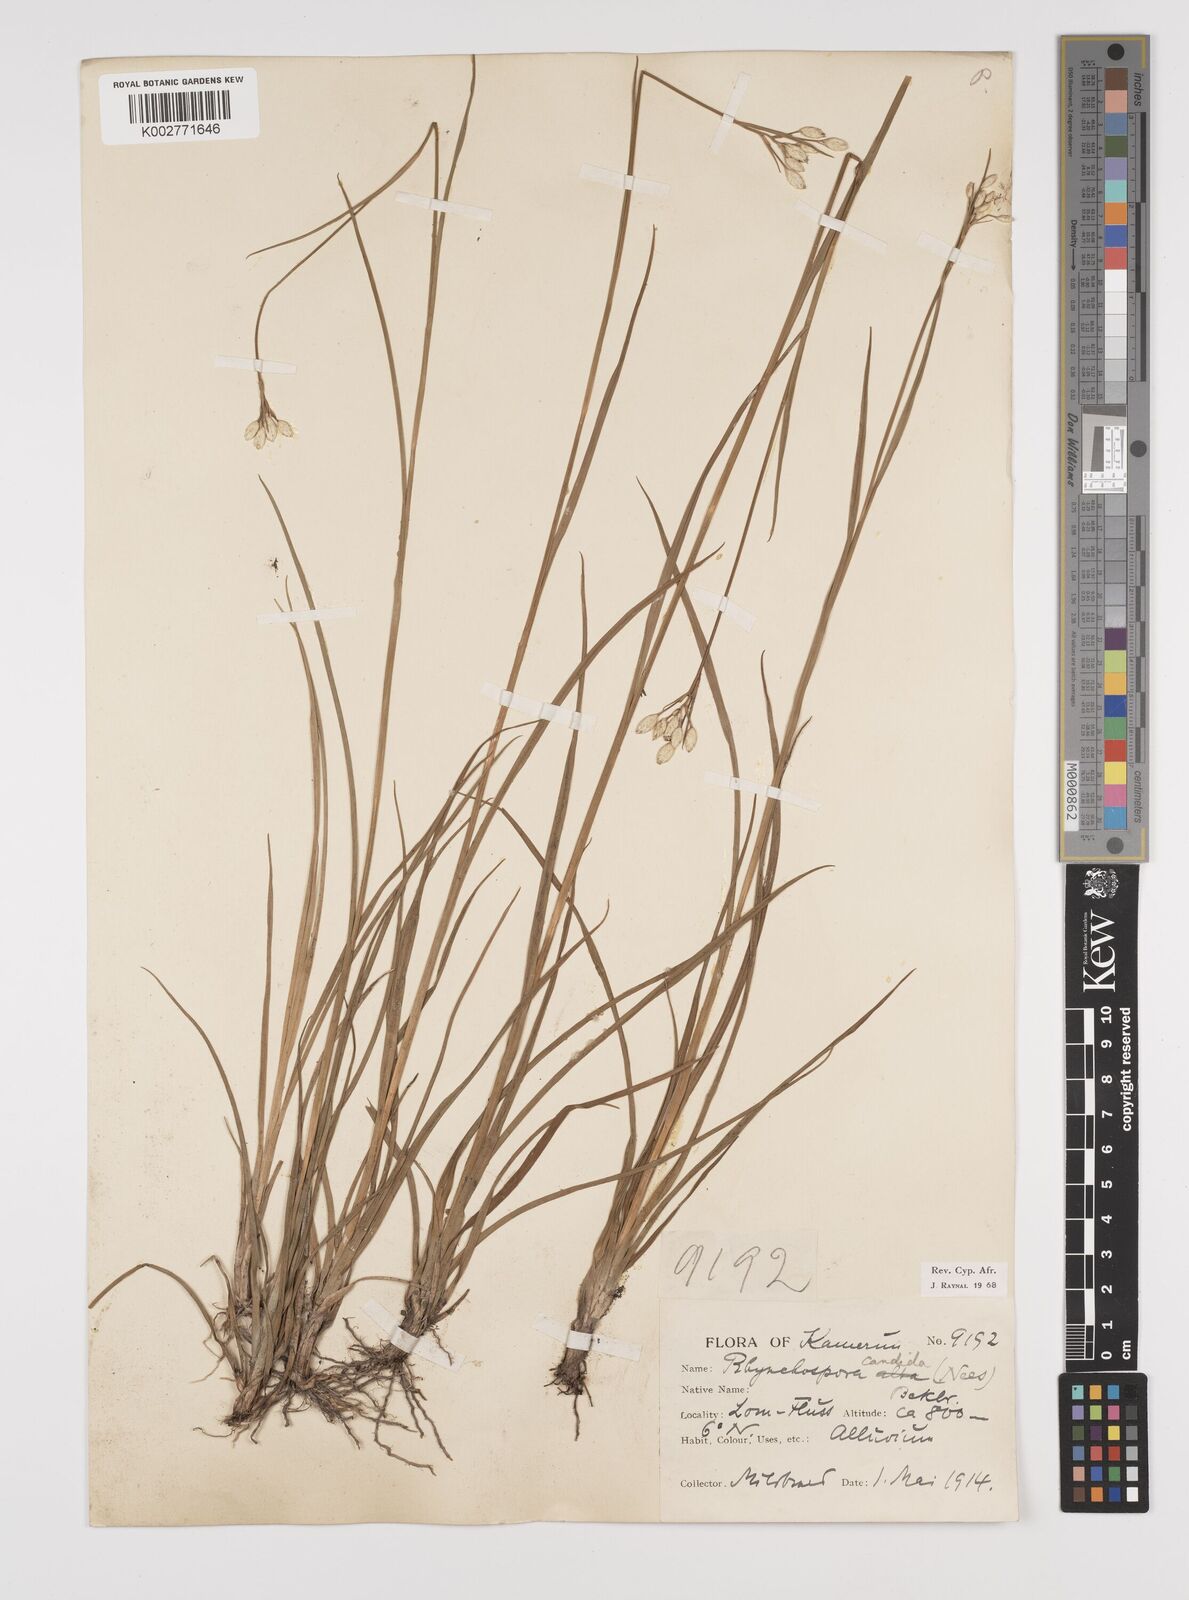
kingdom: Plantae
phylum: Tracheophyta
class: Liliopsida
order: Poales
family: Cyperaceae
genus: Rhynchospora
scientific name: Rhynchospora candida
